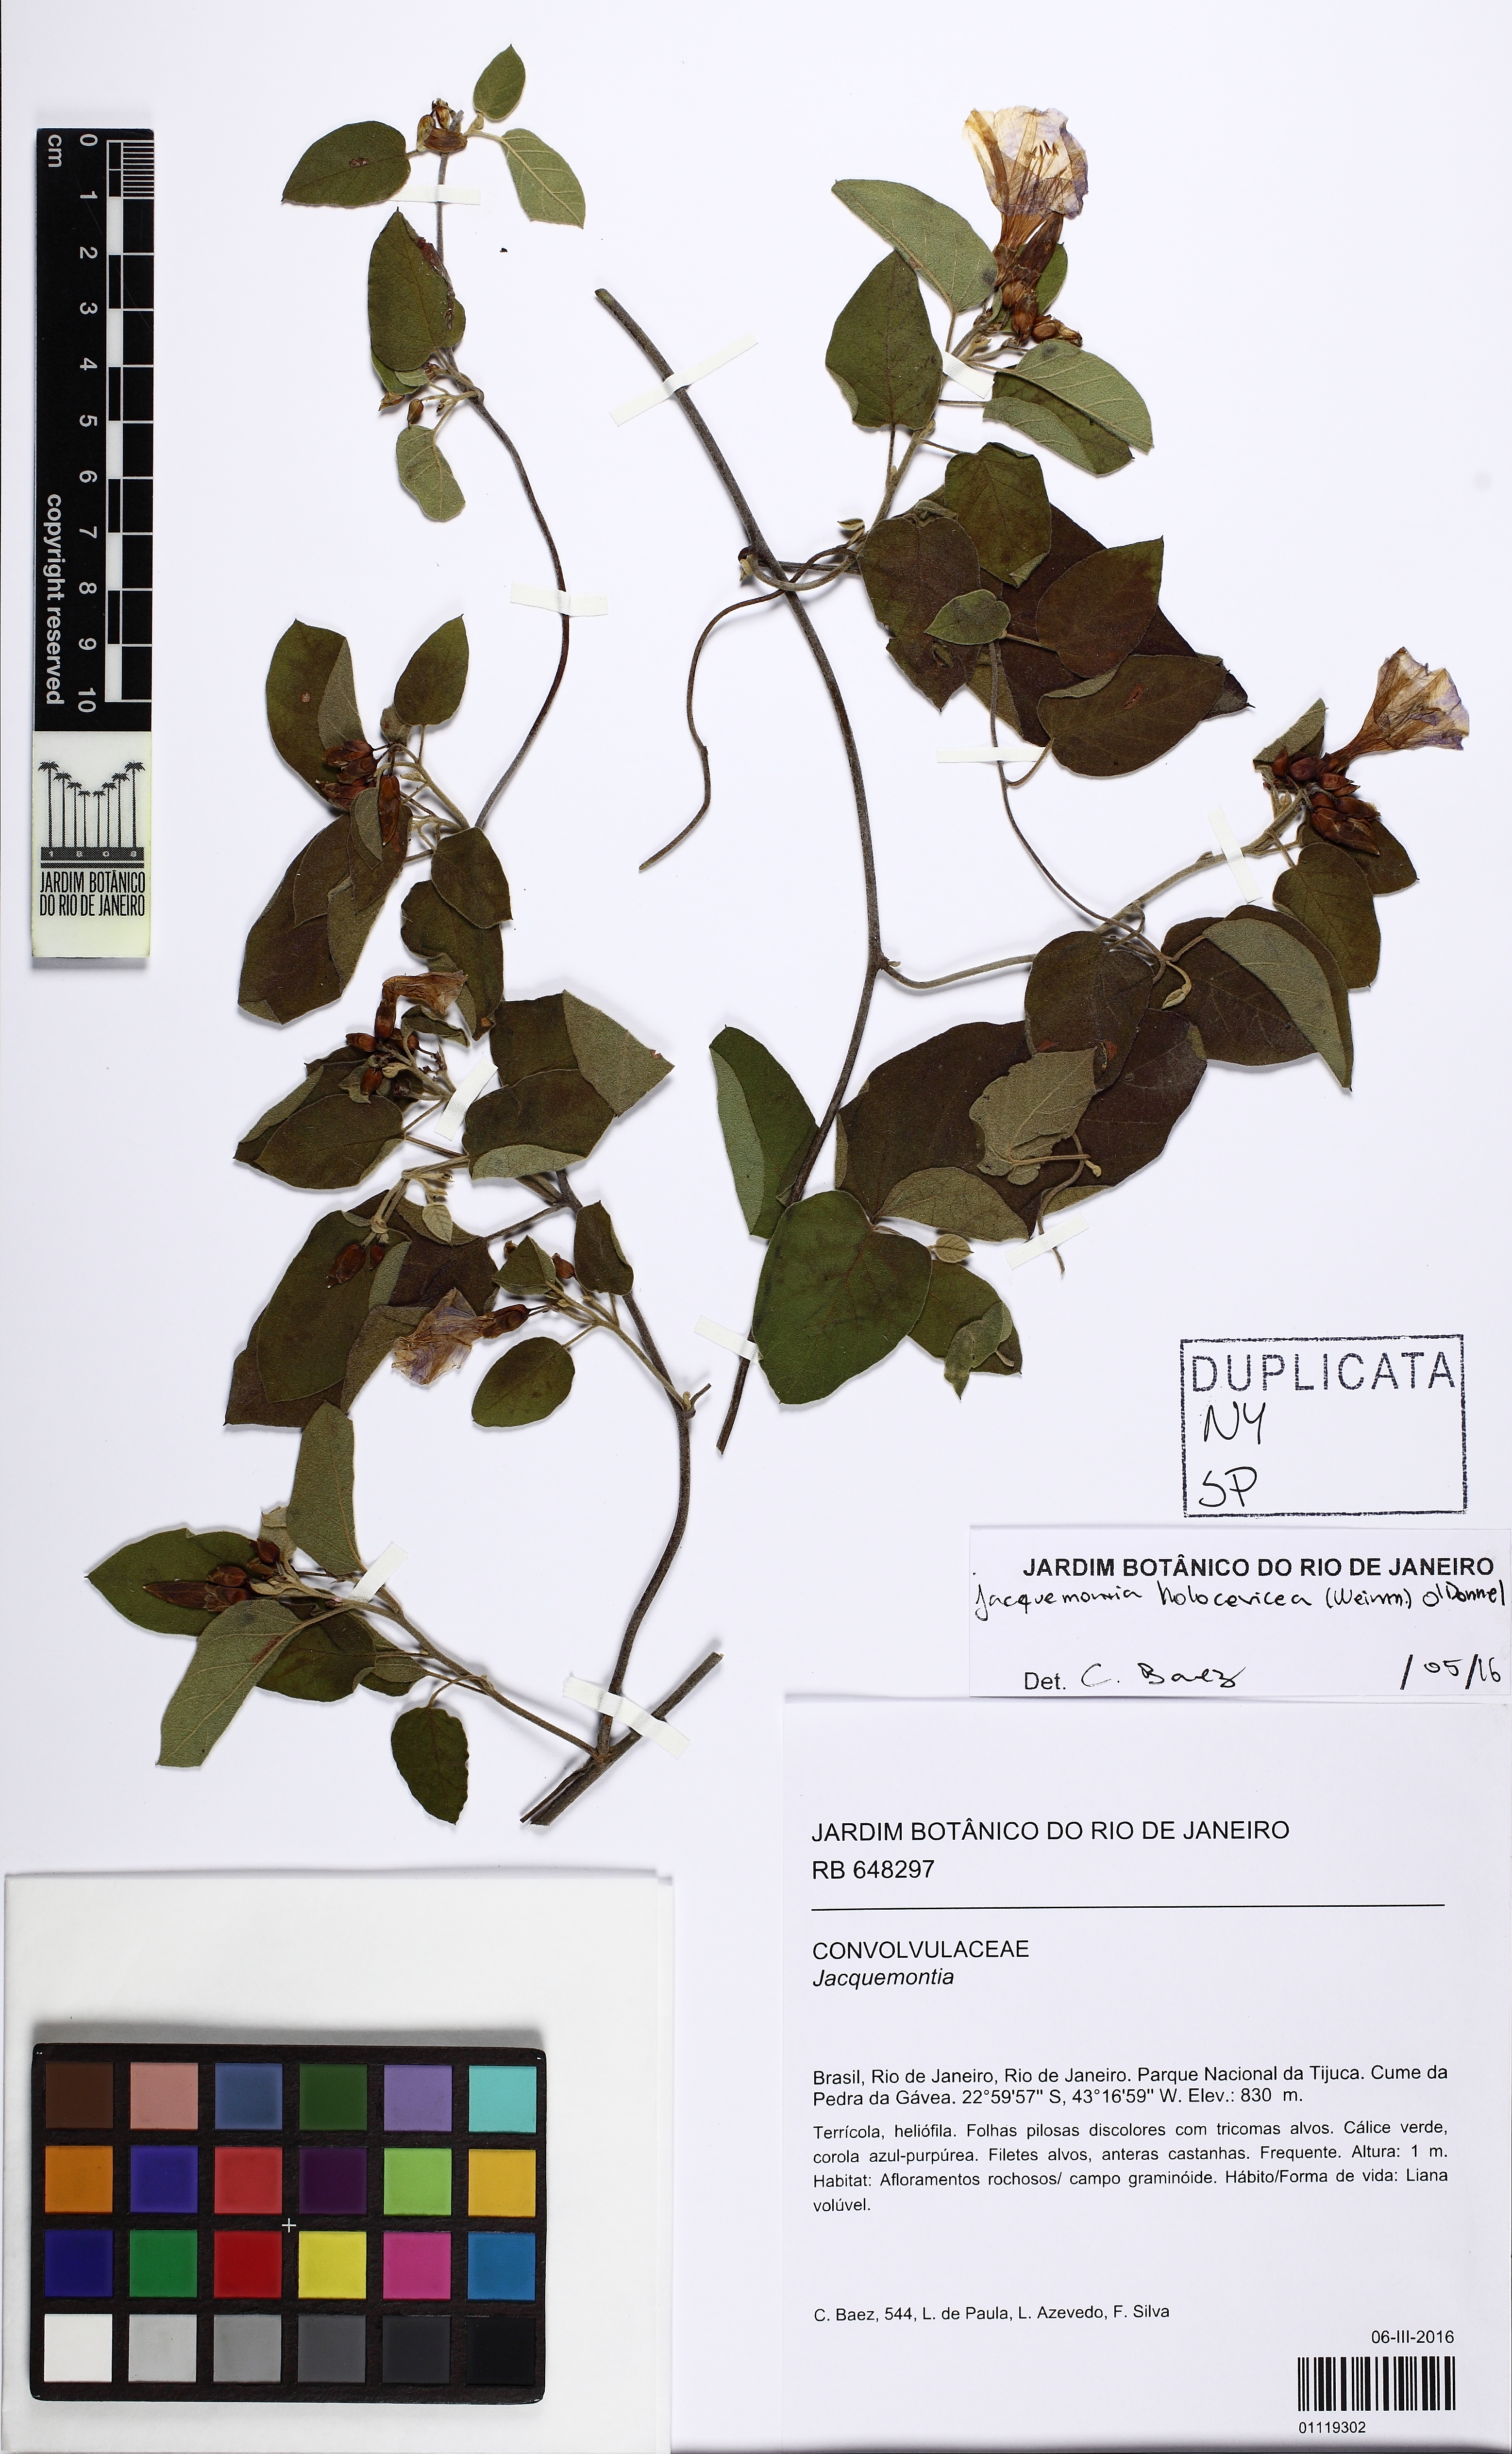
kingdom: Plantae
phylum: Tracheophyta
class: Magnoliopsida
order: Solanales
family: Convolvulaceae
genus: Jacquemontia
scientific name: Jacquemontia holosericea
